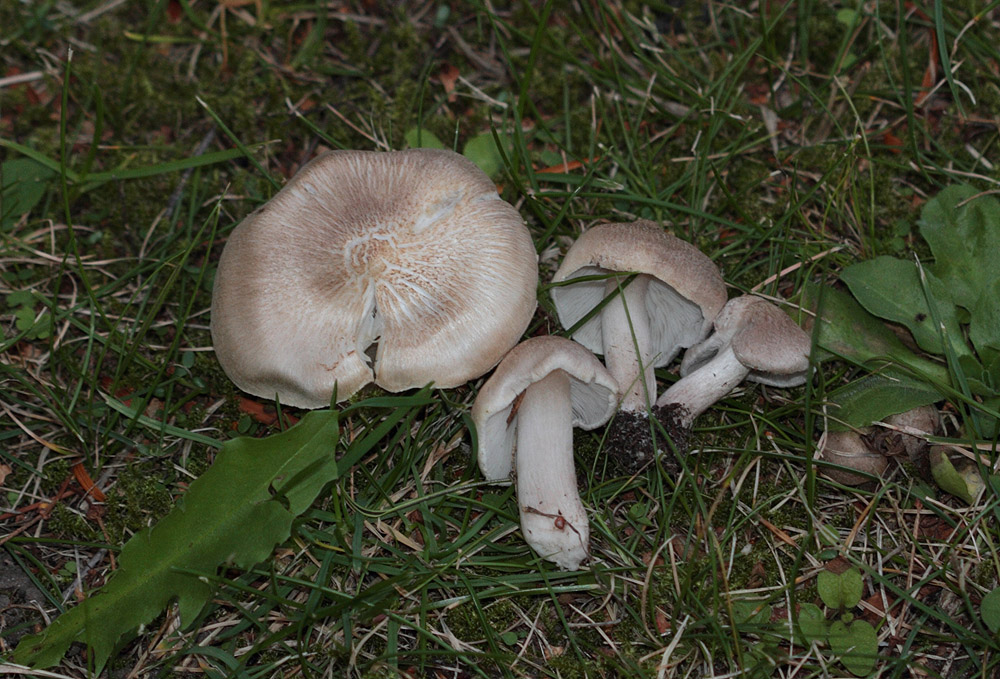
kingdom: Fungi
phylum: Basidiomycota
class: Agaricomycetes
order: Agaricales
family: Tricholomataceae
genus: Tricholoma
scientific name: Tricholoma argyraceum
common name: spids ridderhat
